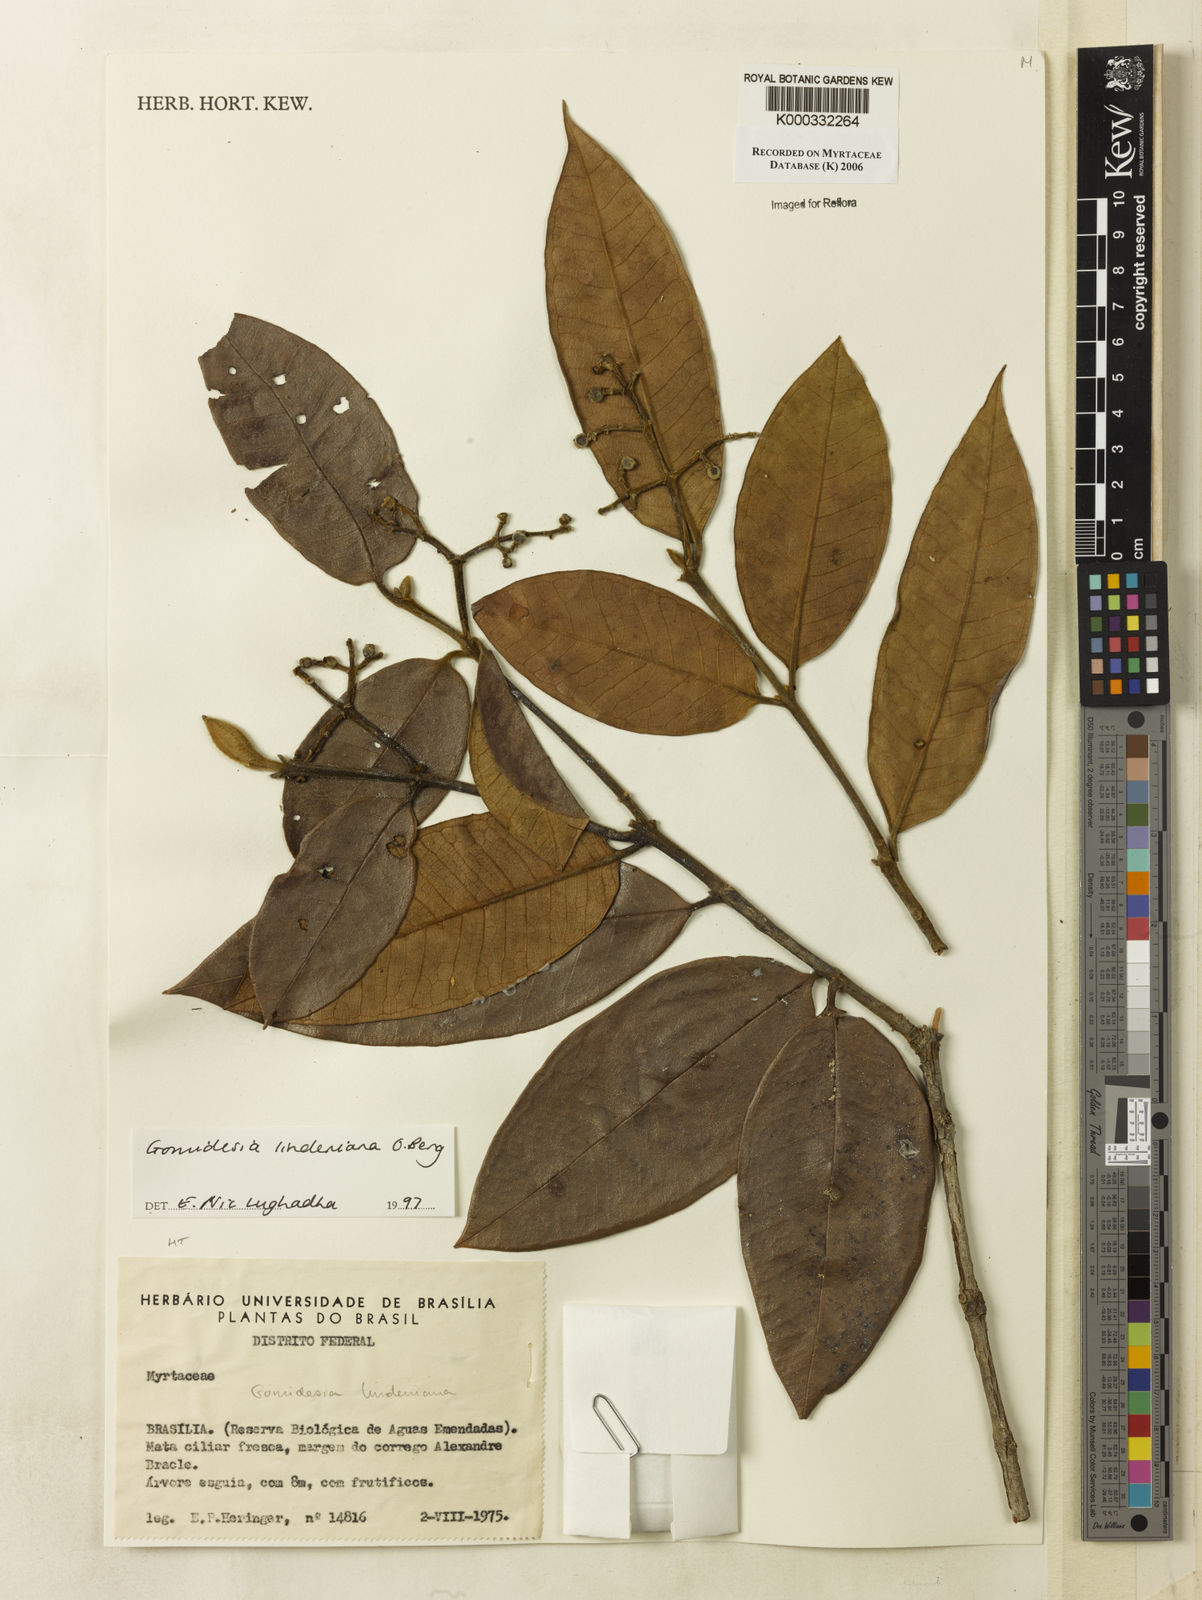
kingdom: Plantae
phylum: Tracheophyta
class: Magnoliopsida
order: Myrtales
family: Myrtaceae
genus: Myrcia
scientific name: Myrcia fenzliana
